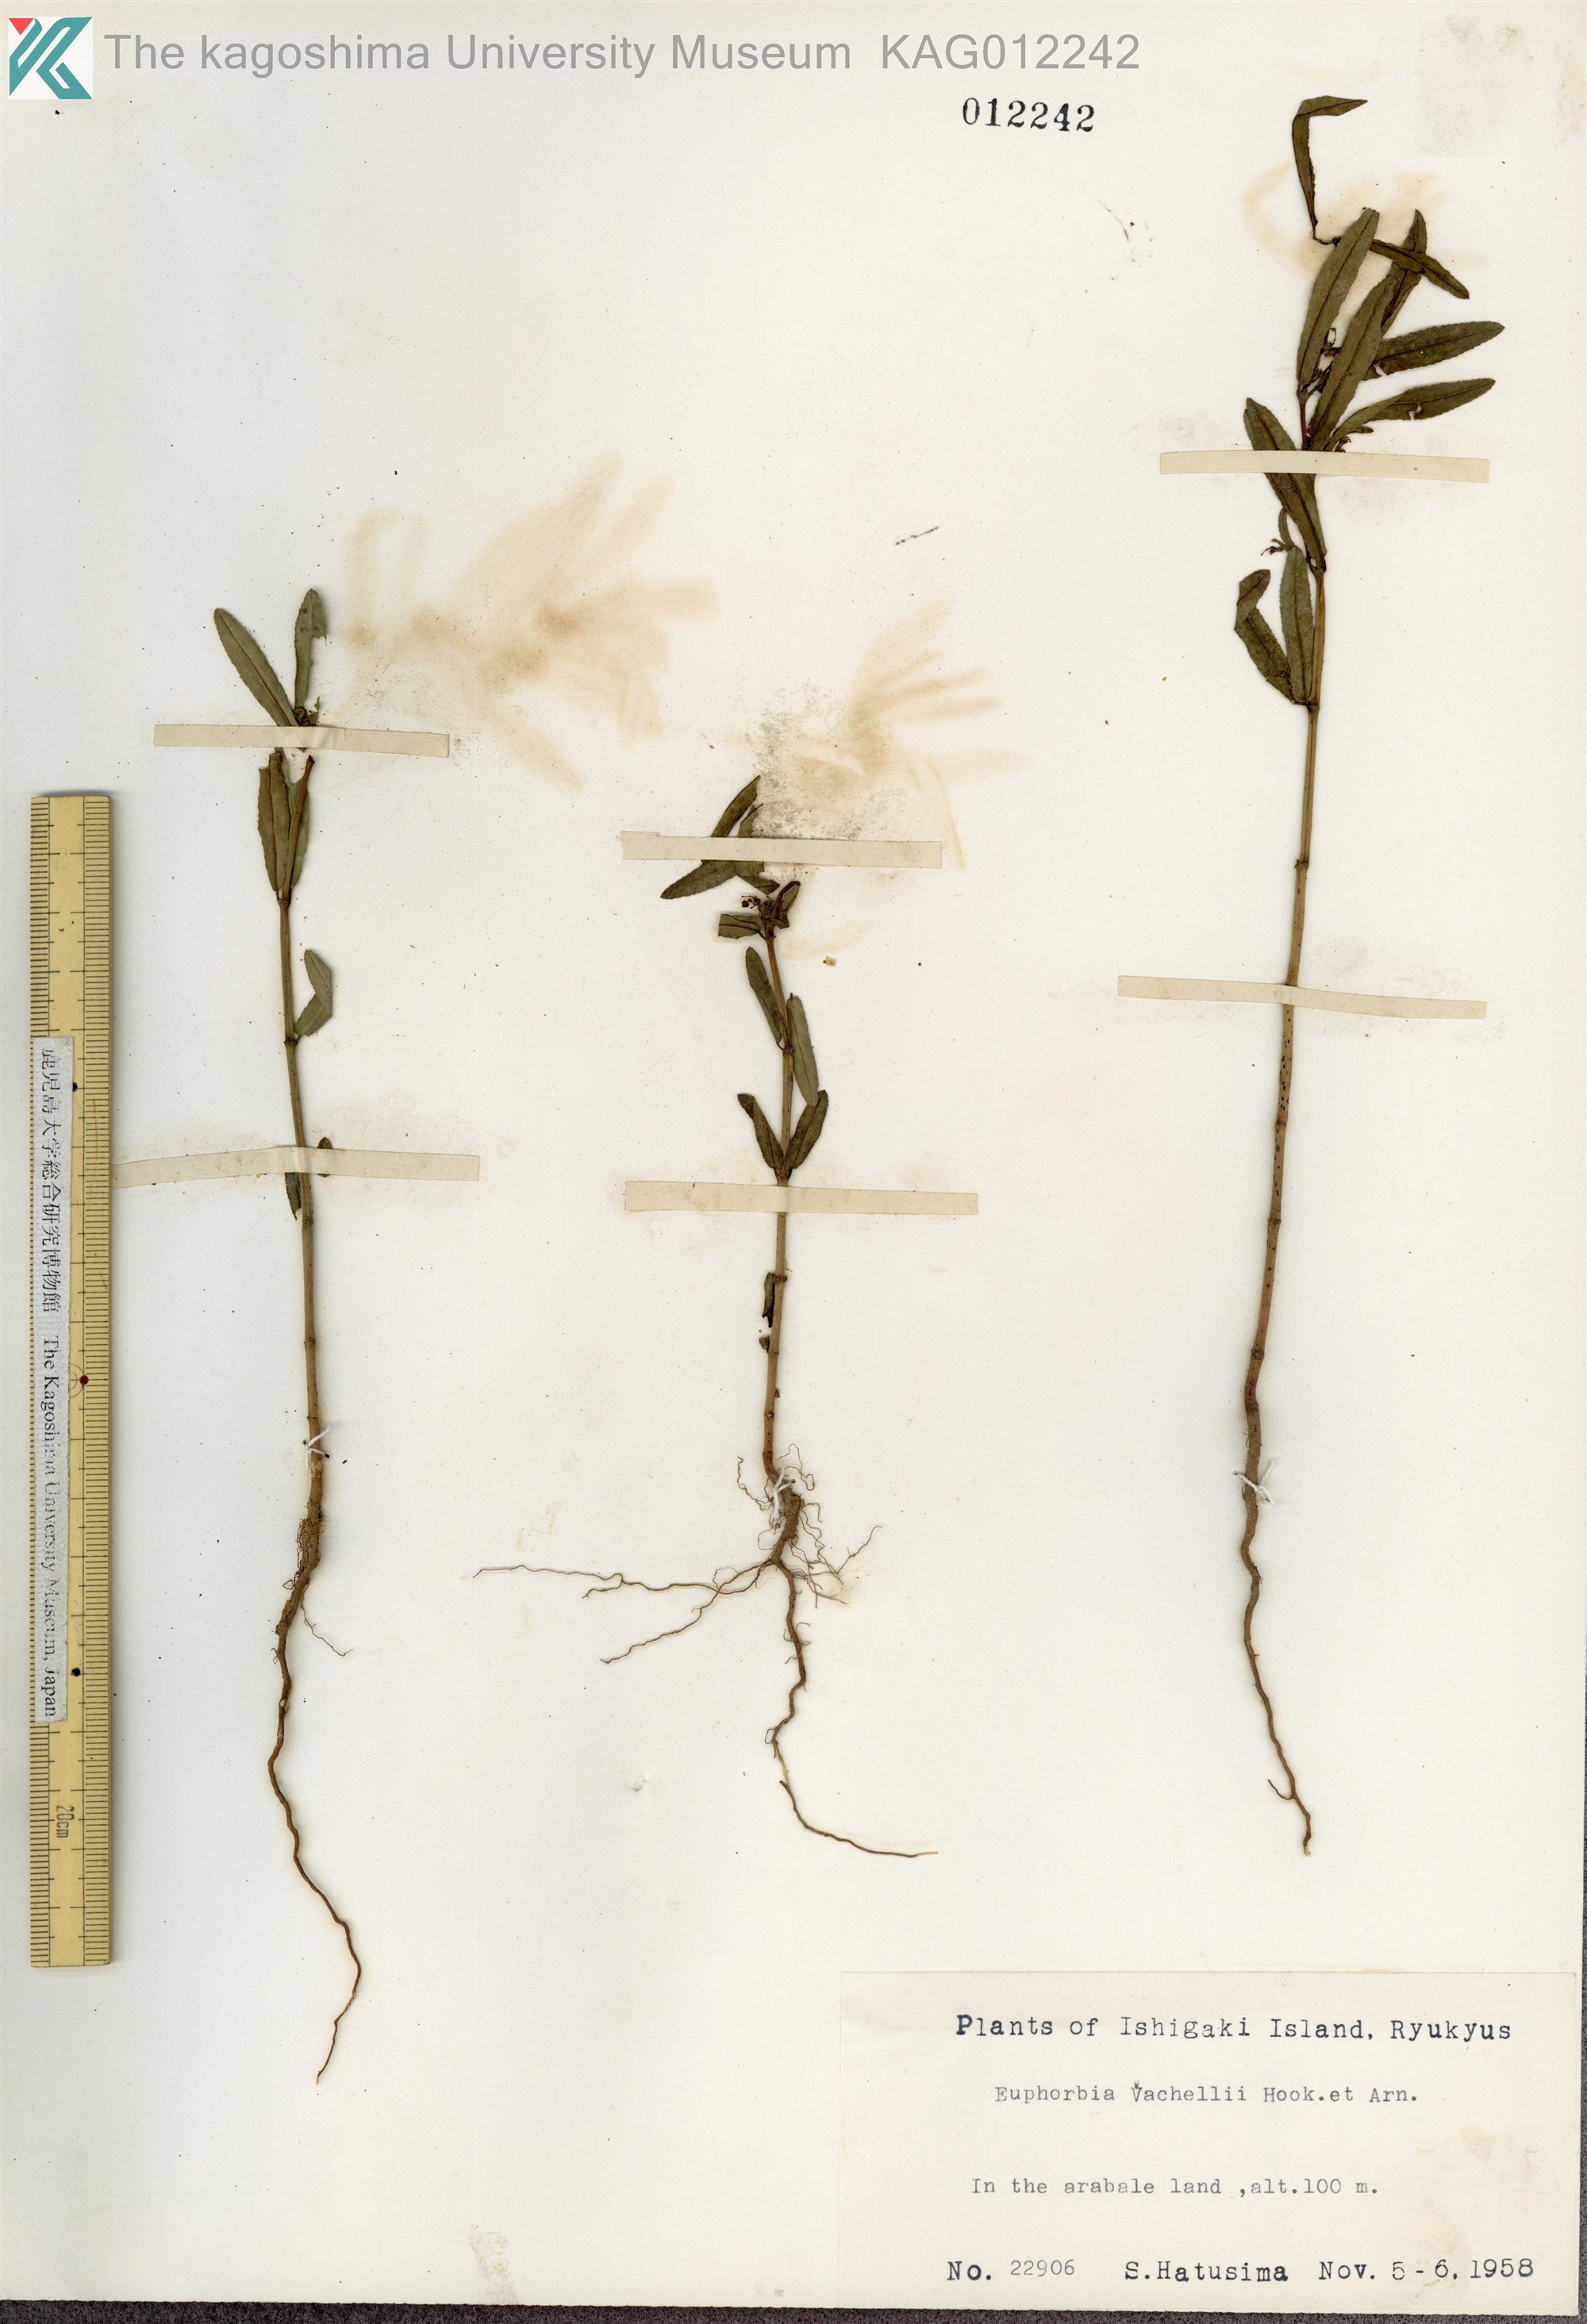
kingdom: Plantae
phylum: Tracheophyta
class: Magnoliopsida
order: Malpighiales
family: Euphorbiaceae
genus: Euphorbia
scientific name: Euphorbia bifida
